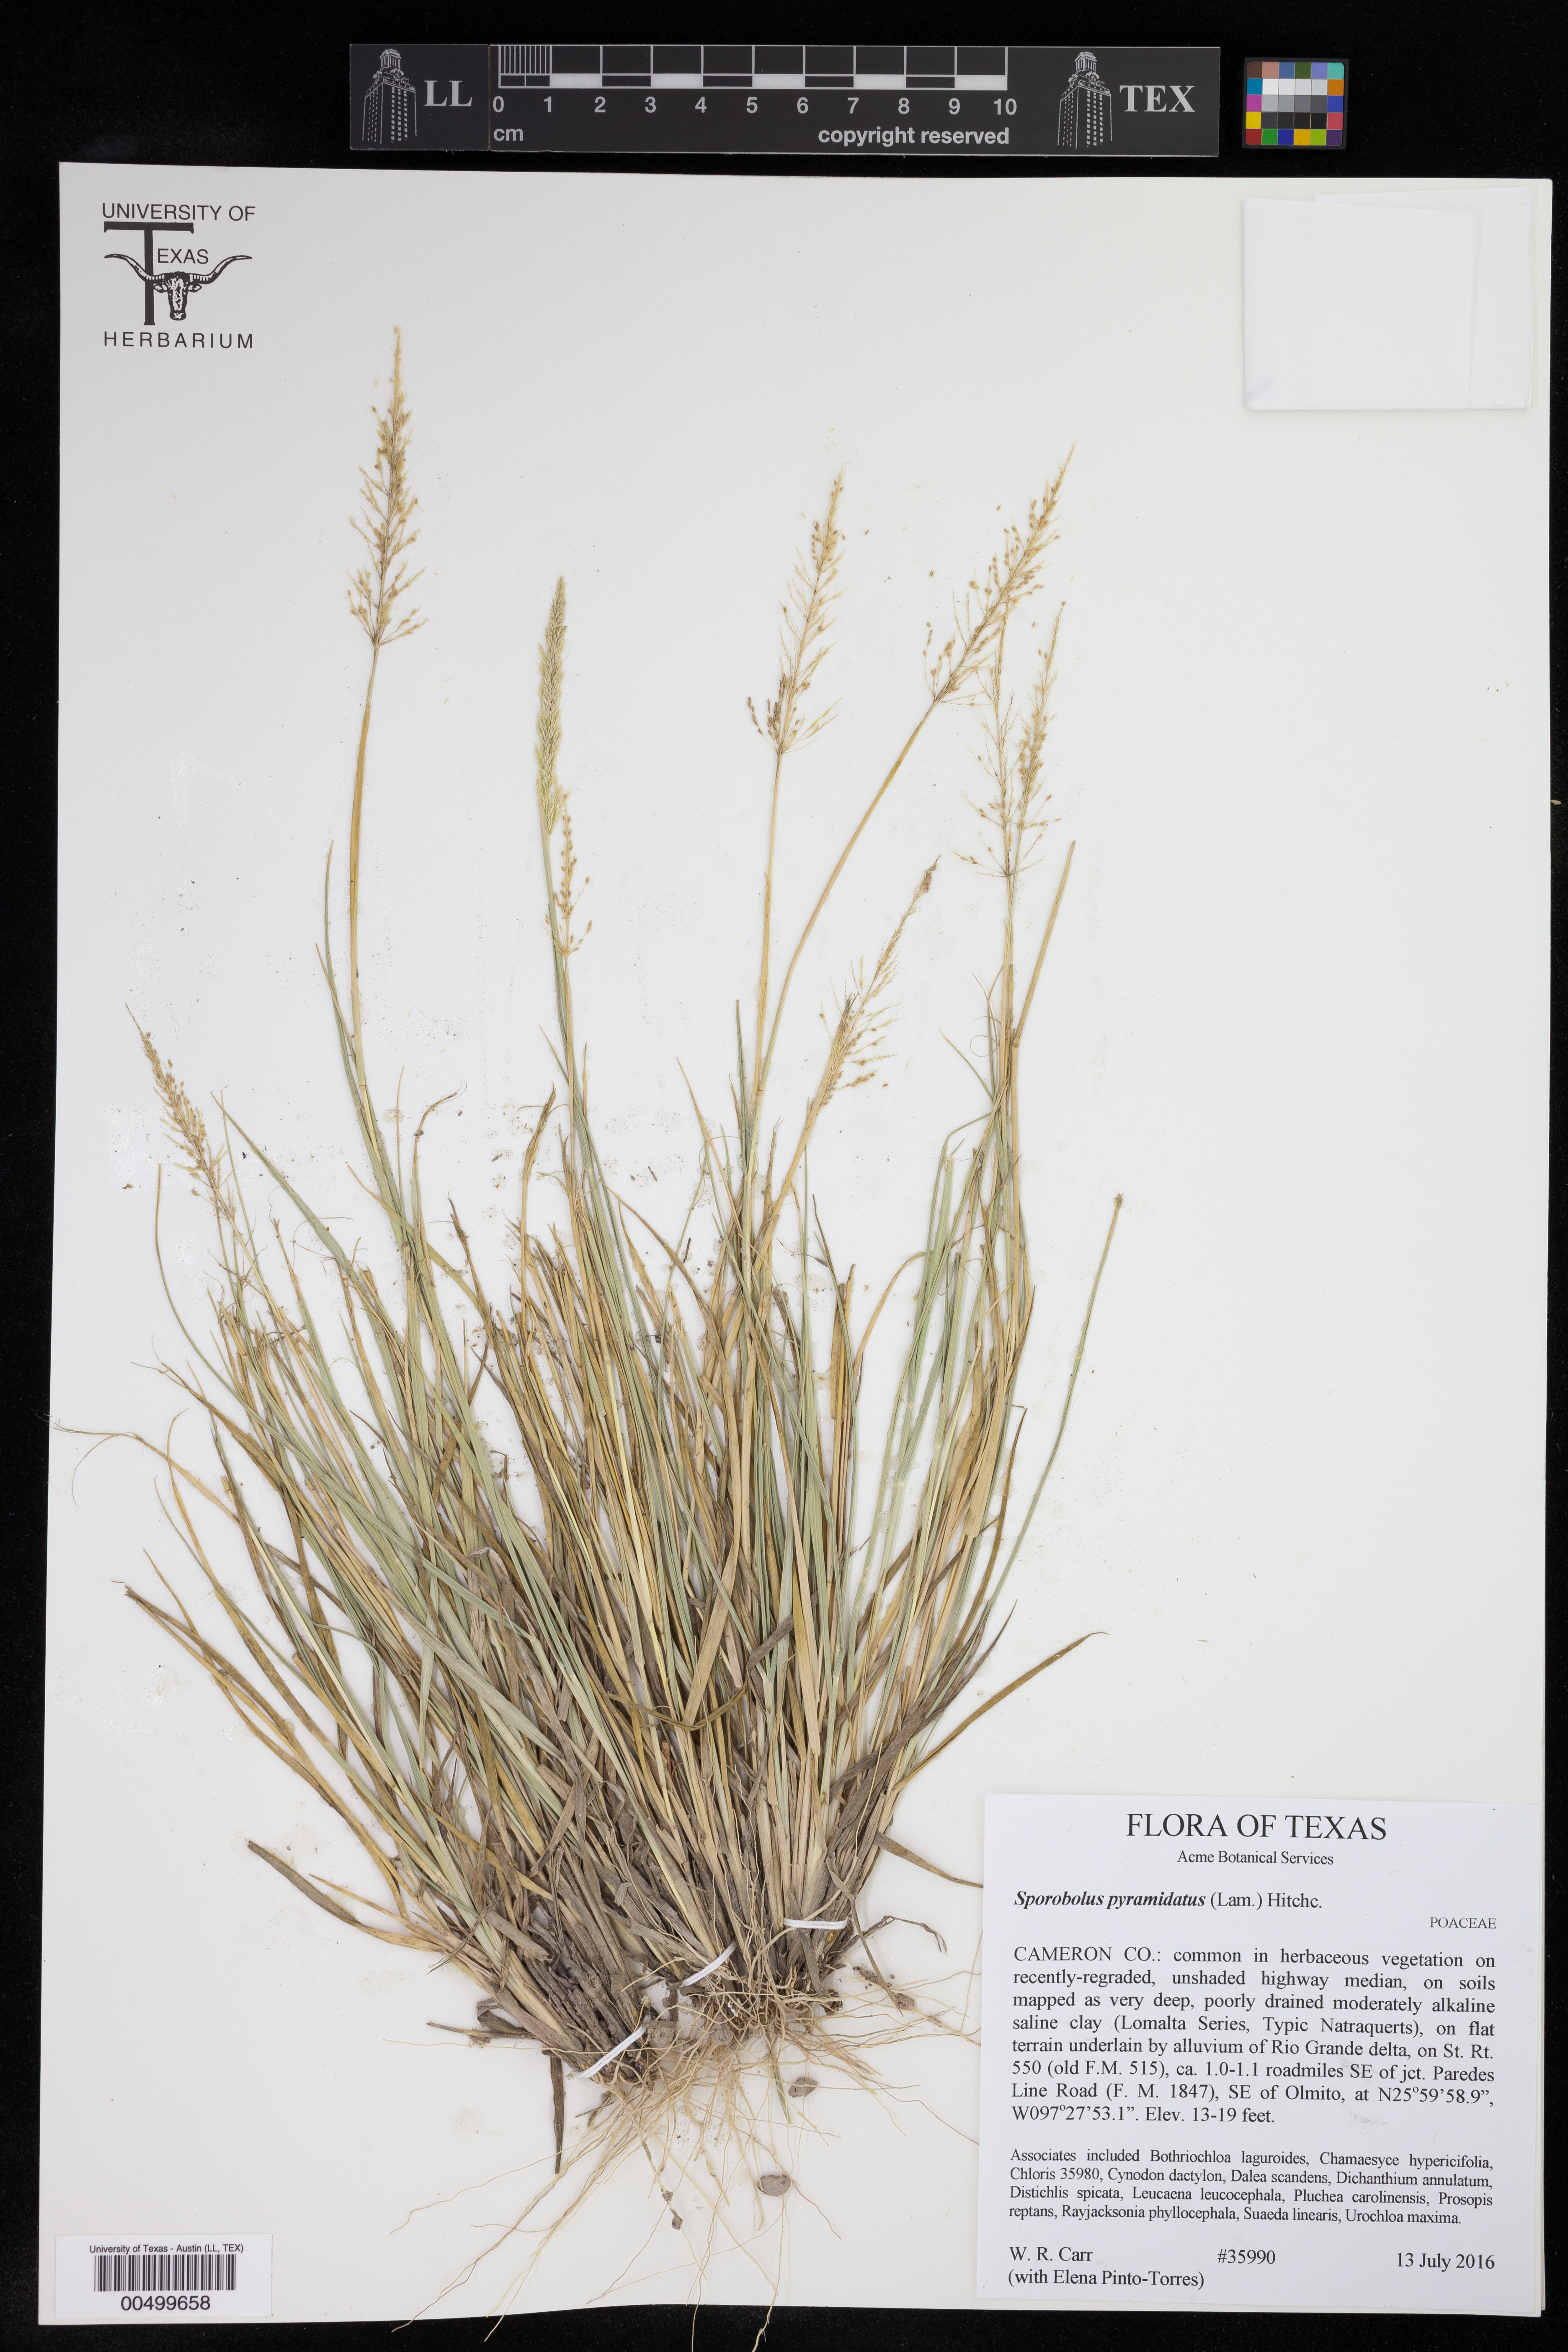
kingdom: Plantae
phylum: Tracheophyta
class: Liliopsida
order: Poales
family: Poaceae
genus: Sporobolus
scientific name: Sporobolus pyramidatus
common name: Whorled dropseed
